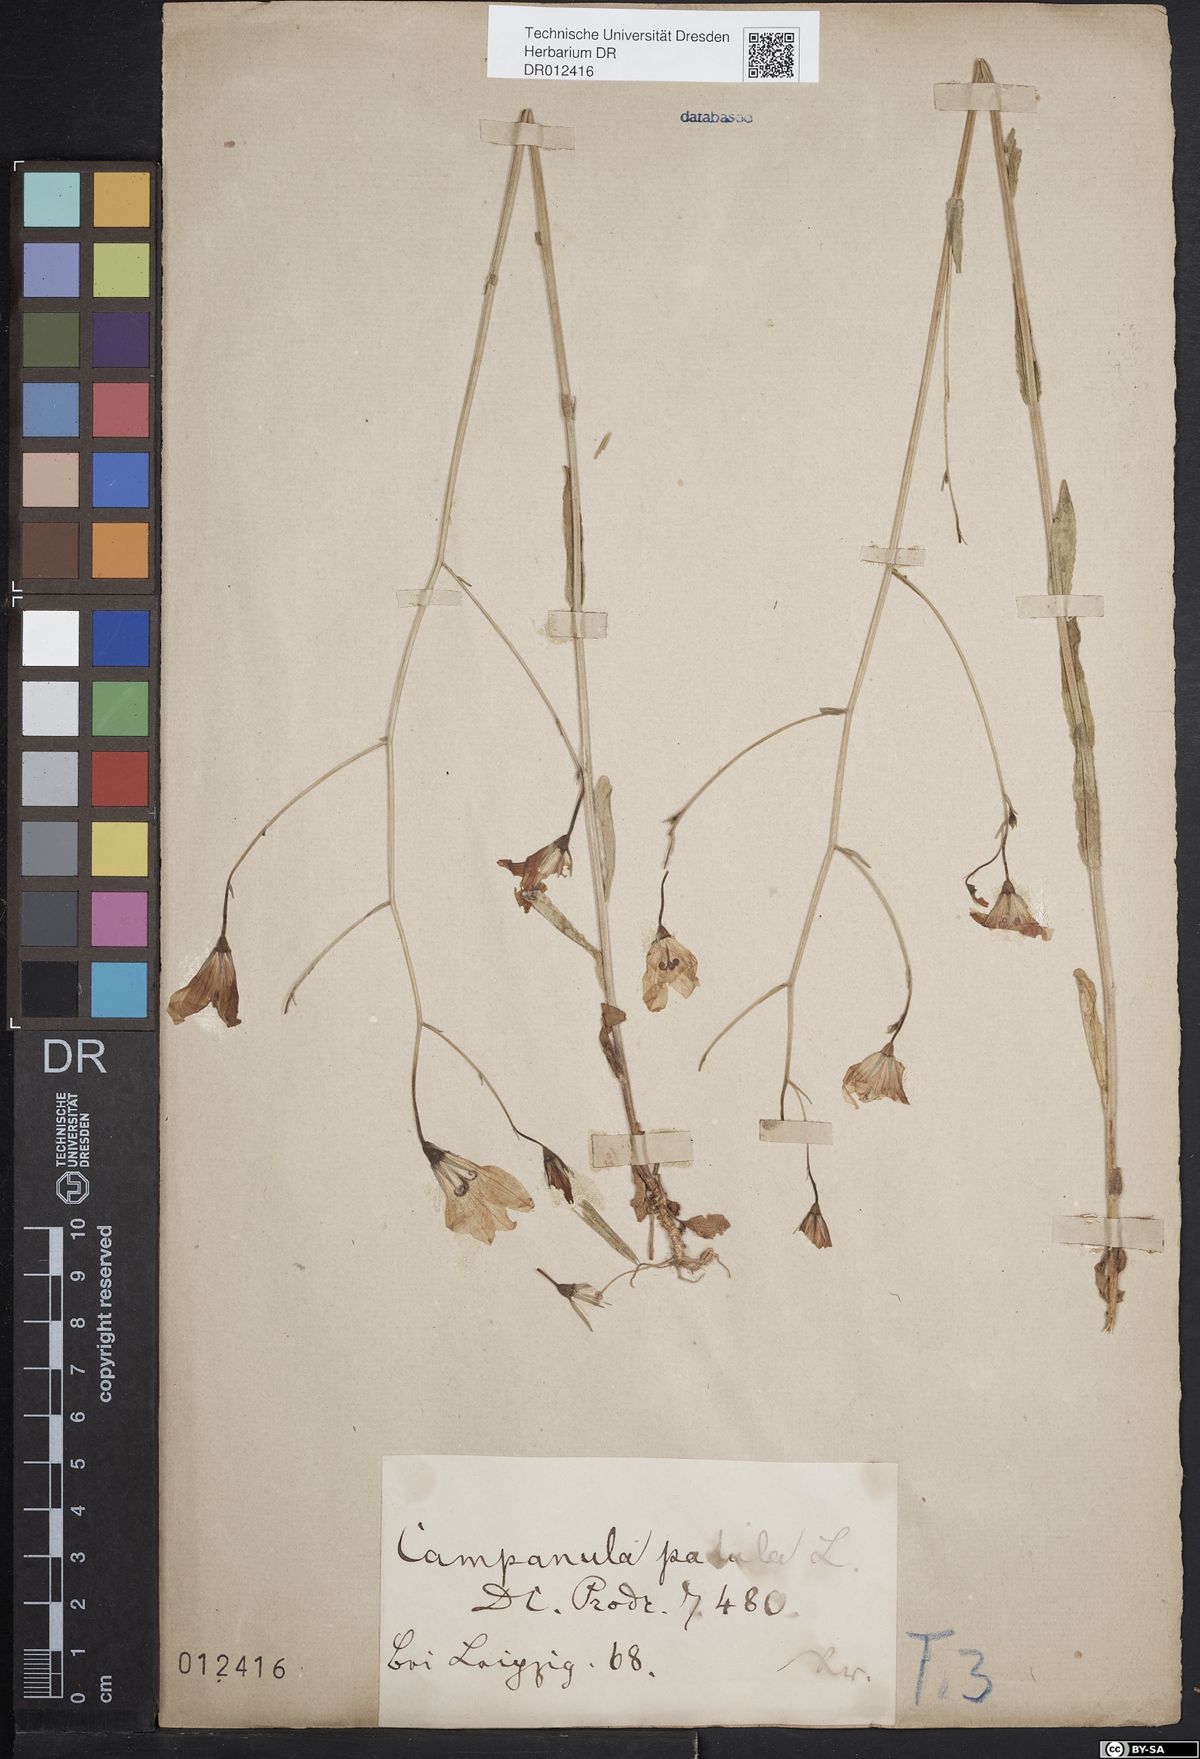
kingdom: Plantae
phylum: Tracheophyta
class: Magnoliopsida
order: Asterales
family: Campanulaceae
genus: Campanula
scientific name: Campanula patula
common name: Spreading bellflower
